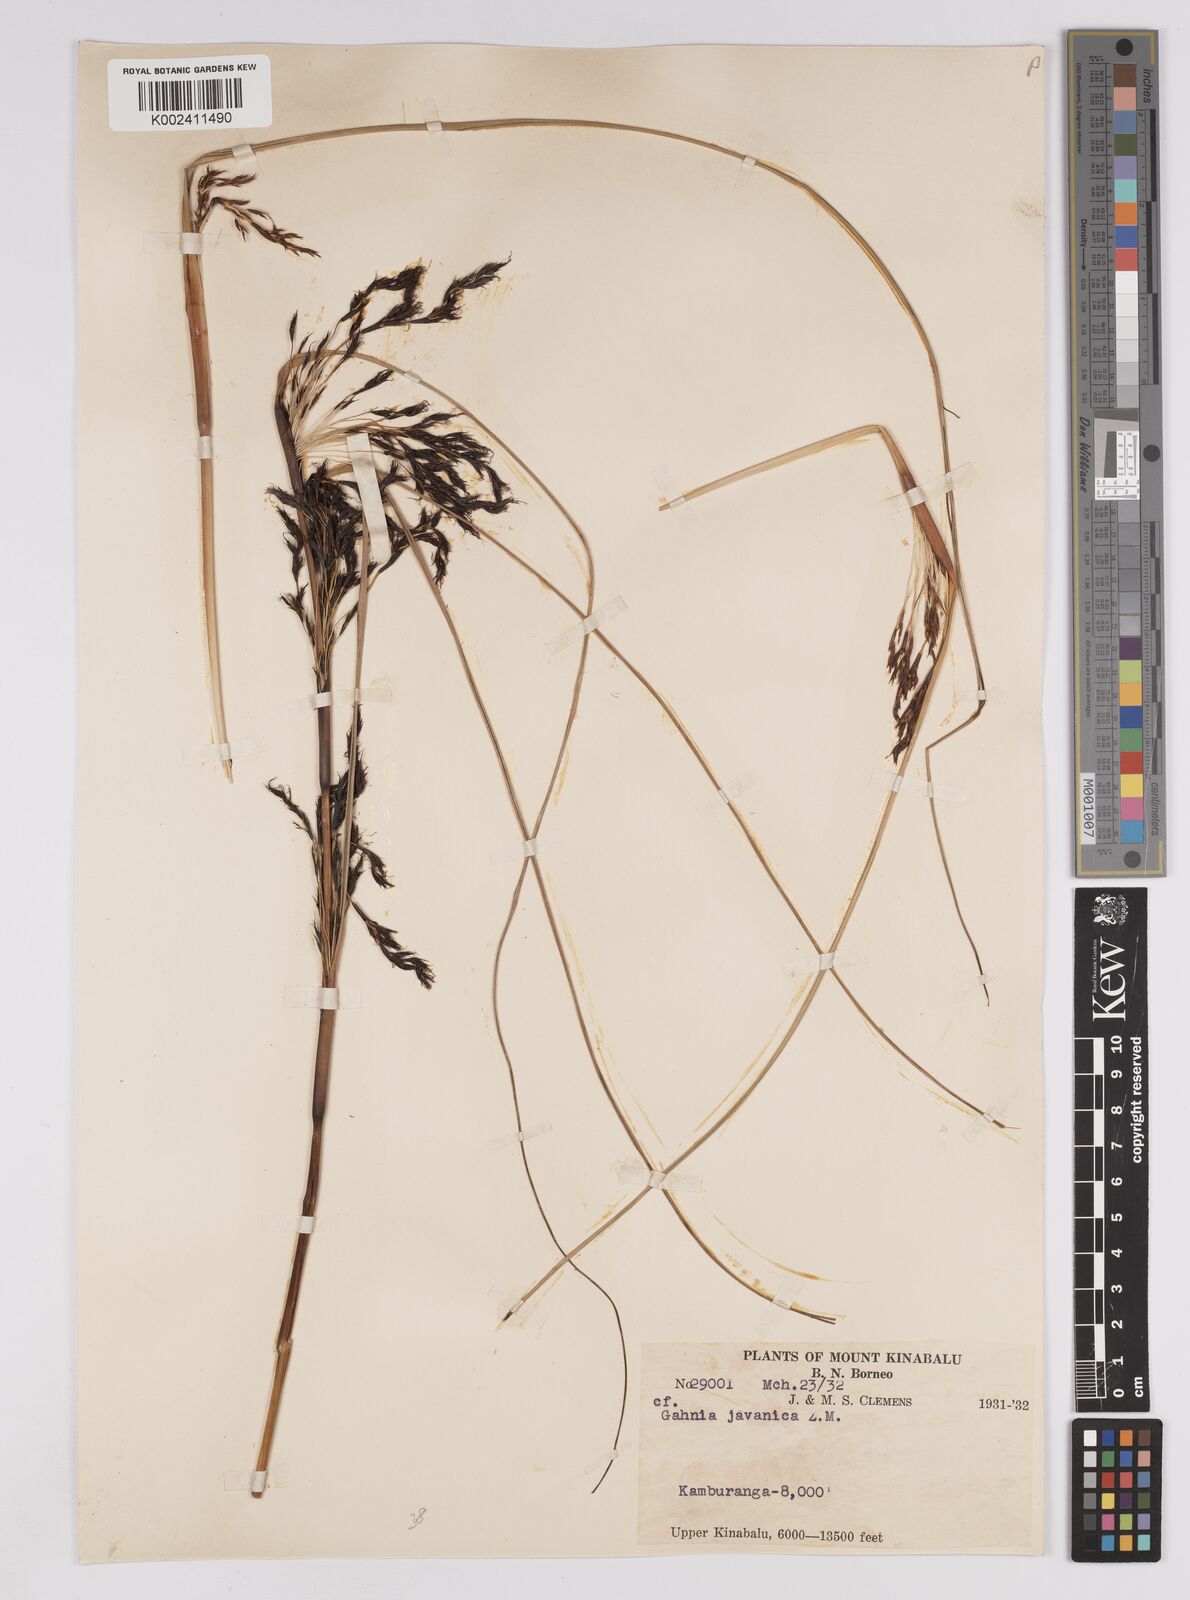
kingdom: Plantae
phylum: Tracheophyta
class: Liliopsida
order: Poales
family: Cyperaceae
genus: Gahnia
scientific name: Gahnia javanica
